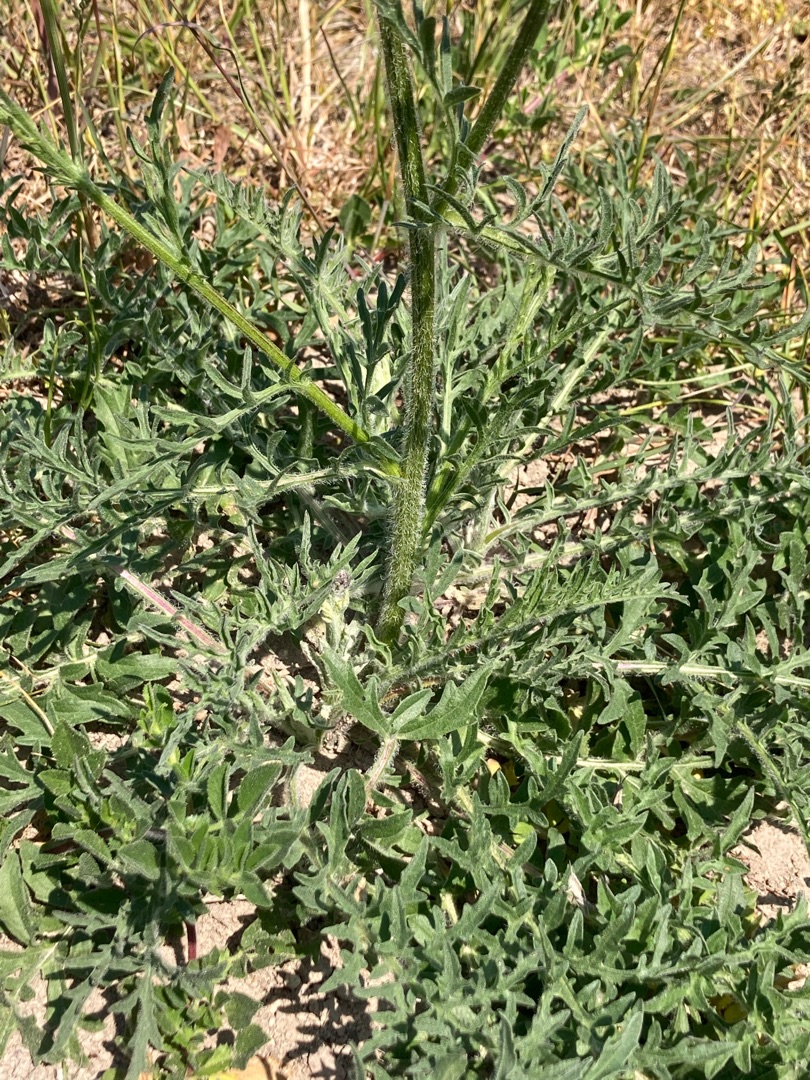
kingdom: Plantae
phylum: Tracheophyta
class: Magnoliopsida
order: Asterales
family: Asteraceae
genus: Centaurea
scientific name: Centaurea scabiosa
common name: Stor knopurt
